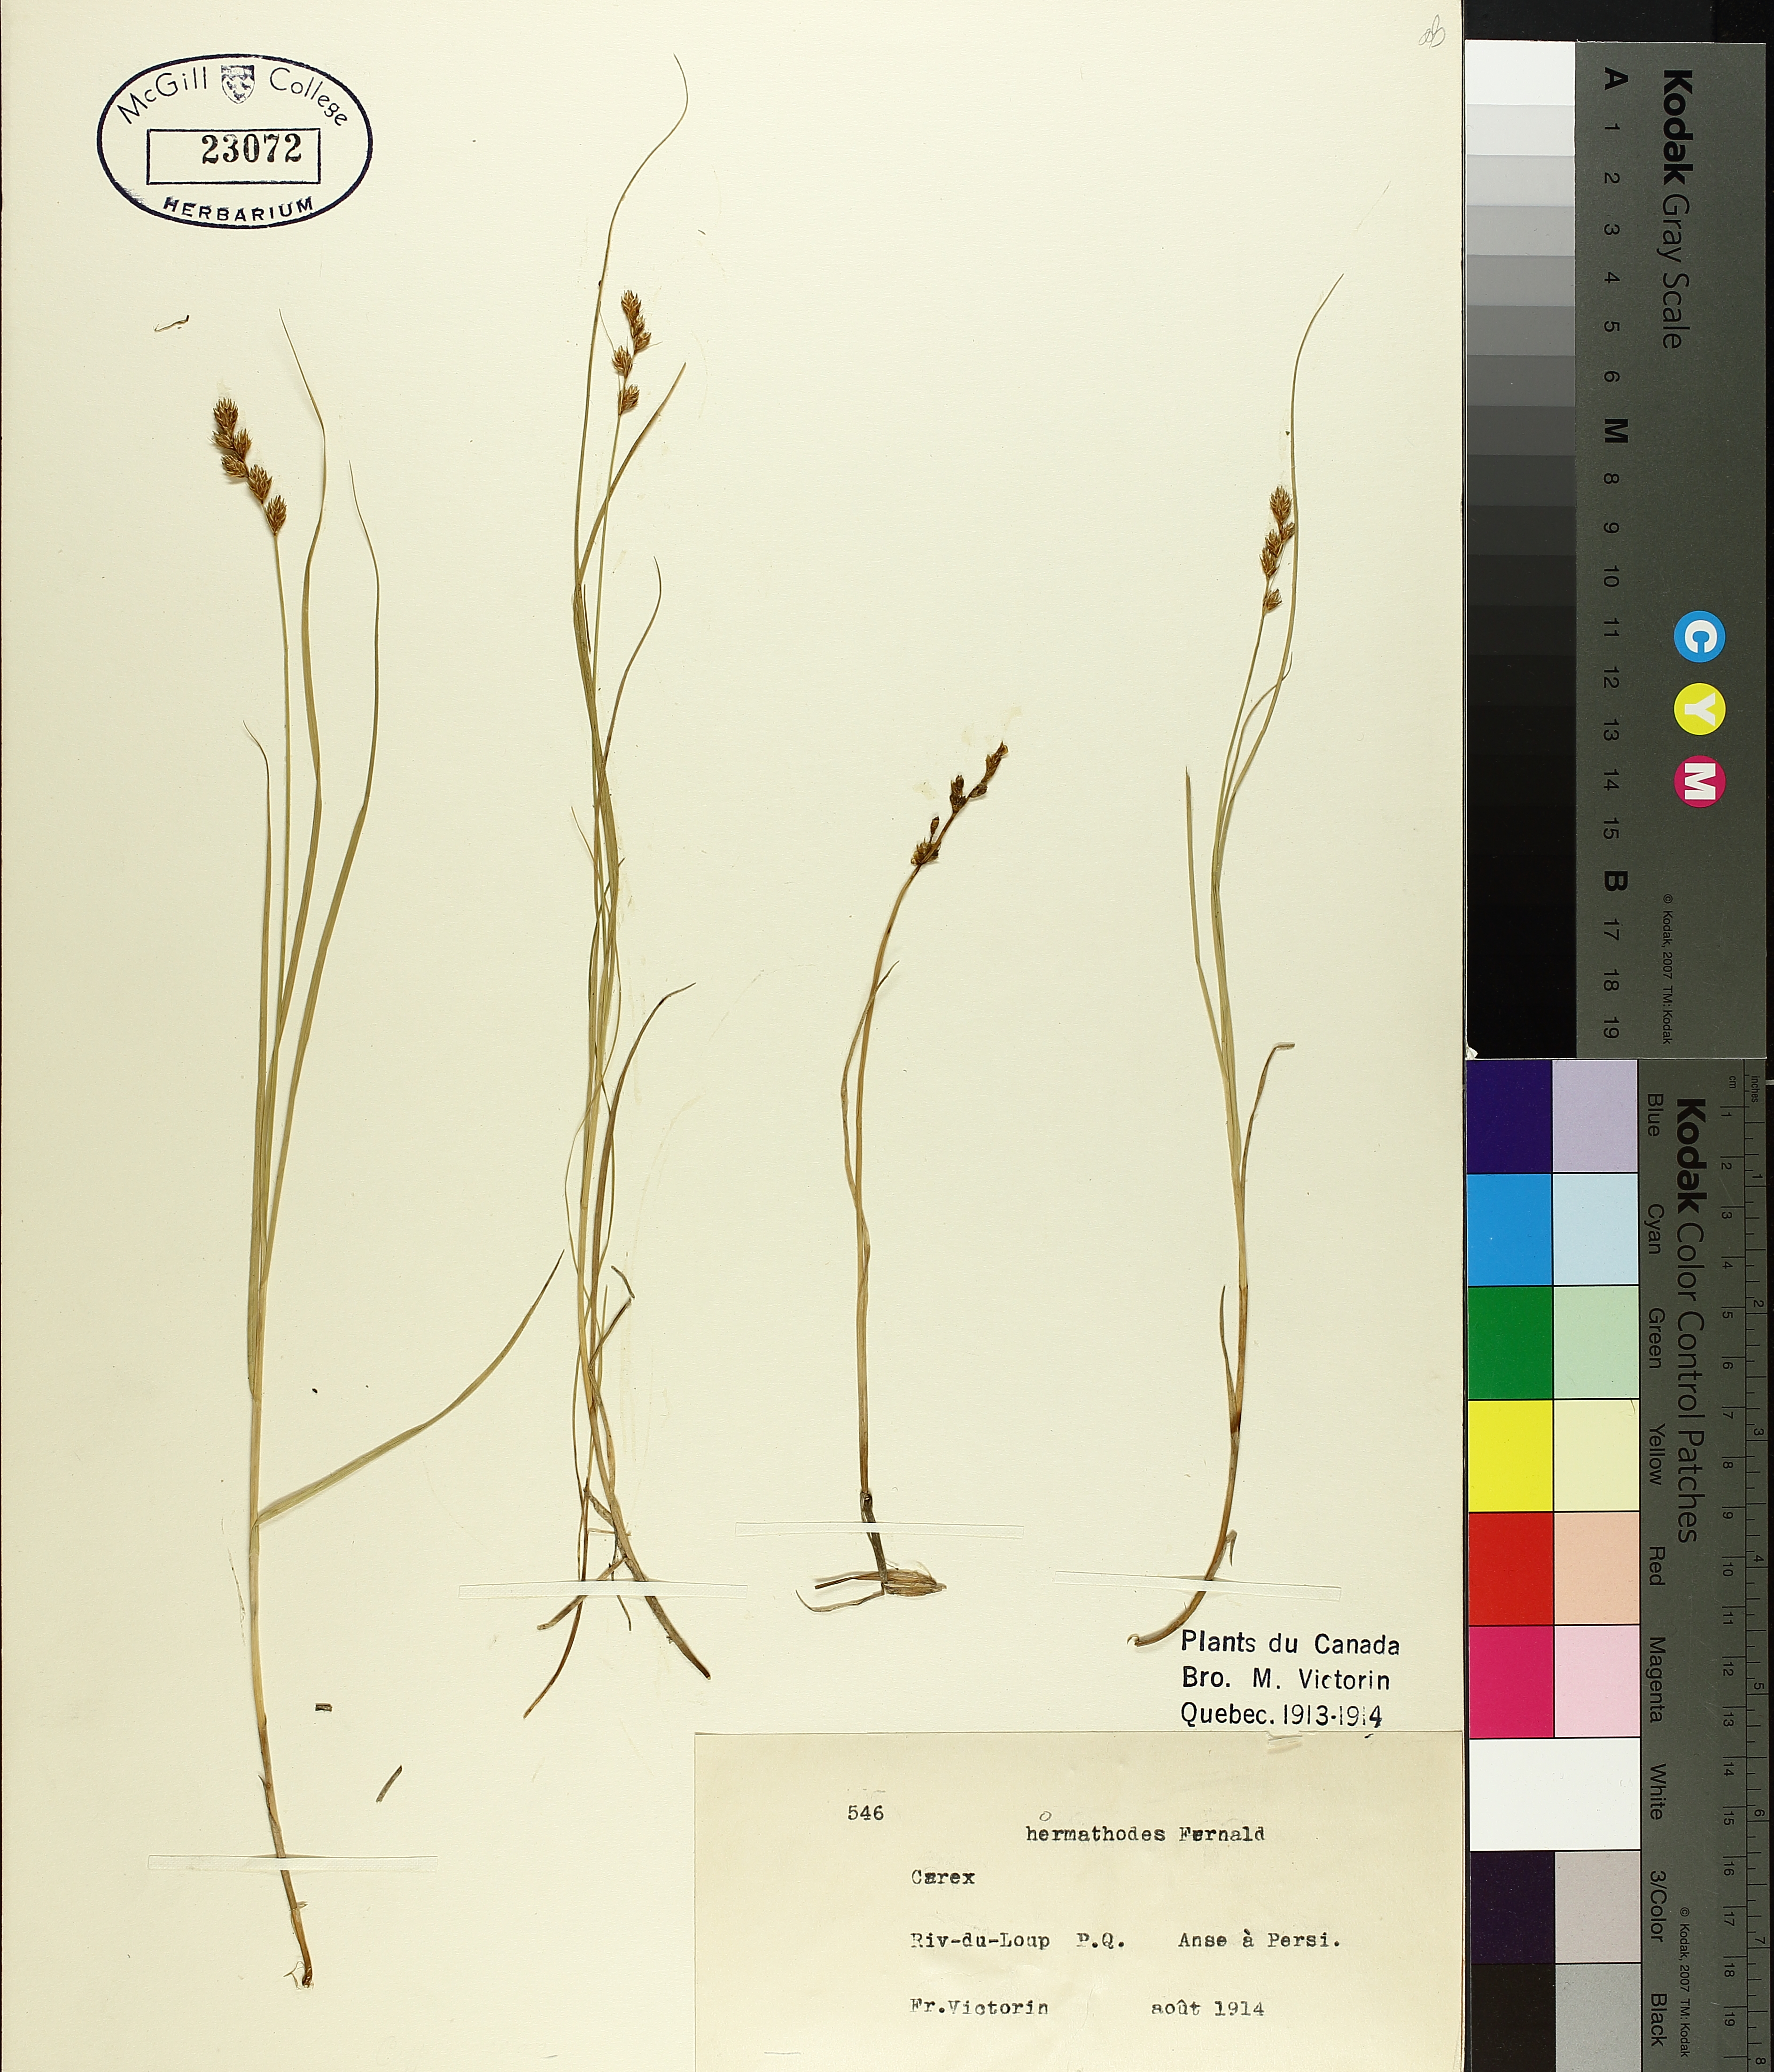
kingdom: Plantae
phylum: Tracheophyta
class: Liliopsida
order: Poales
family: Cyperaceae
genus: Carex
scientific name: Carex hormathodes
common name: Marsh straw sedge
